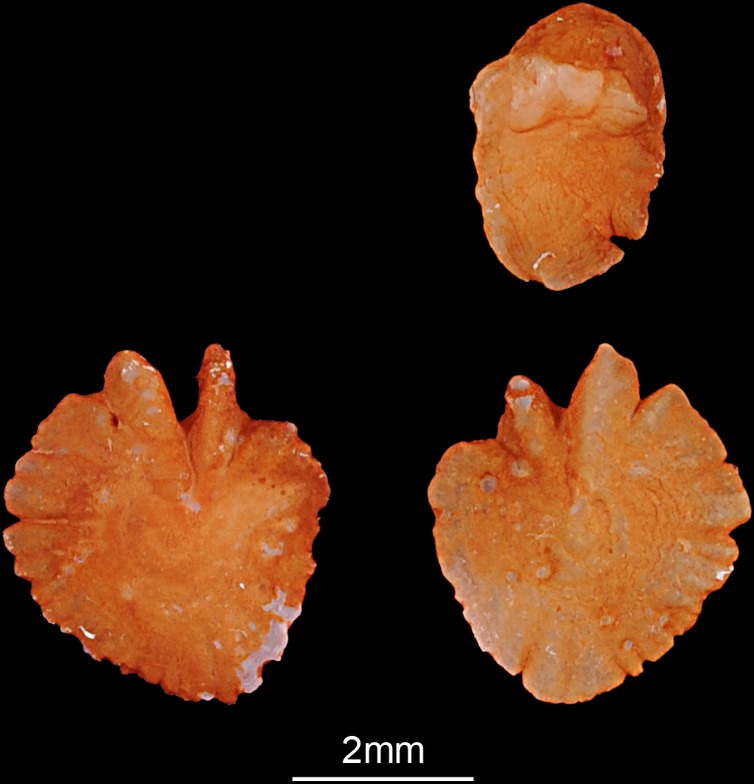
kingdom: Animalia
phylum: Chordata
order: Cypriniformes
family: Cyprinidae
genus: Ballerus
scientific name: Ballerus sapa
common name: White-eye bream
